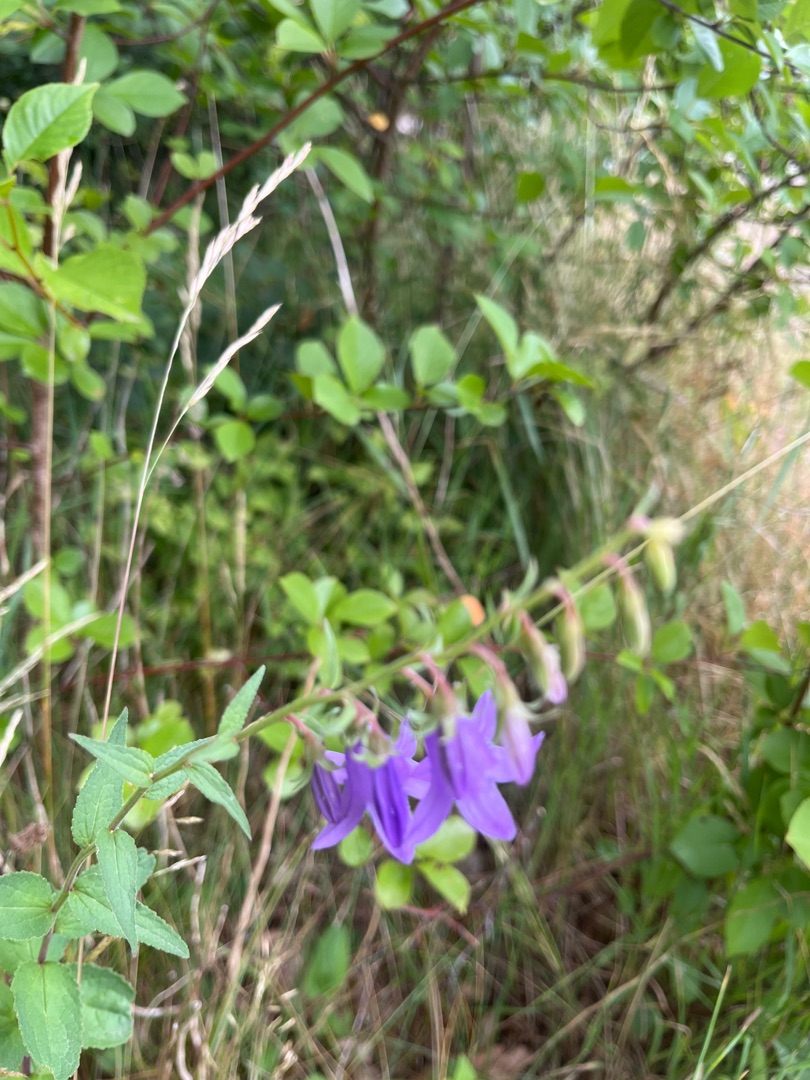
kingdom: Plantae
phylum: Tracheophyta
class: Magnoliopsida
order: Asterales
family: Campanulaceae
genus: Campanula
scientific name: Campanula rapunculoides
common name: Ensidig klokke
